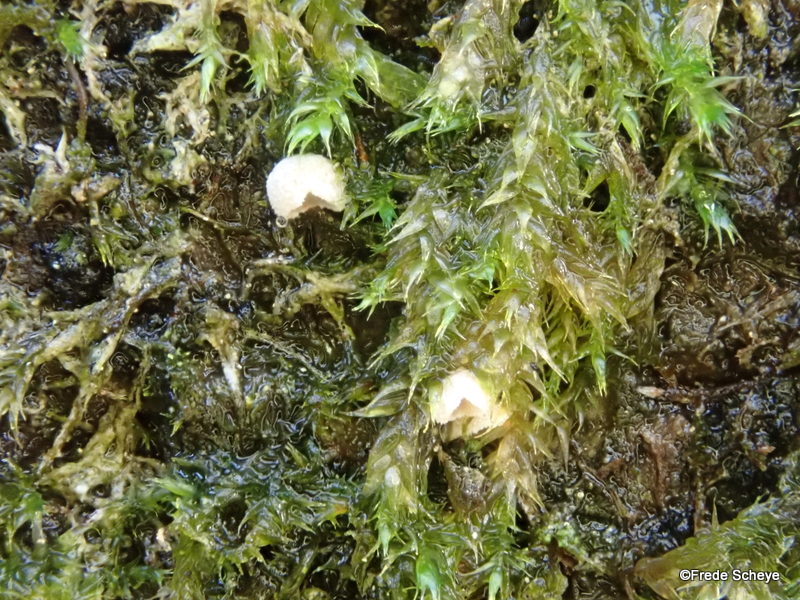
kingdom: Fungi
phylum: Basidiomycota
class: Agaricomycetes
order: Agaricales
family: Chromocyphellaceae
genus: Chromocyphella
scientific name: Chromocyphella muscicola
